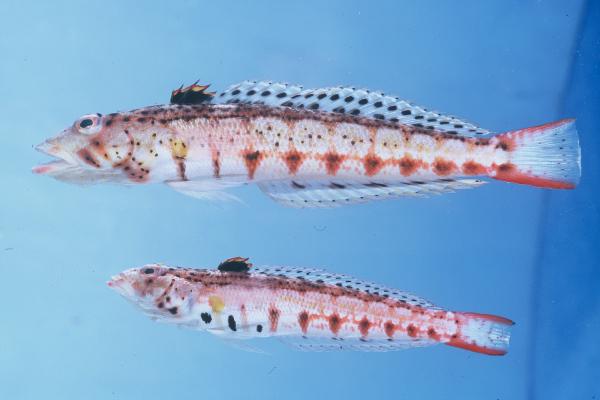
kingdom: Animalia
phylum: Chordata
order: Perciformes
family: Pinguipedidae
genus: Parapercis
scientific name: Parapercis punctulata
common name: Spotted sandperch
